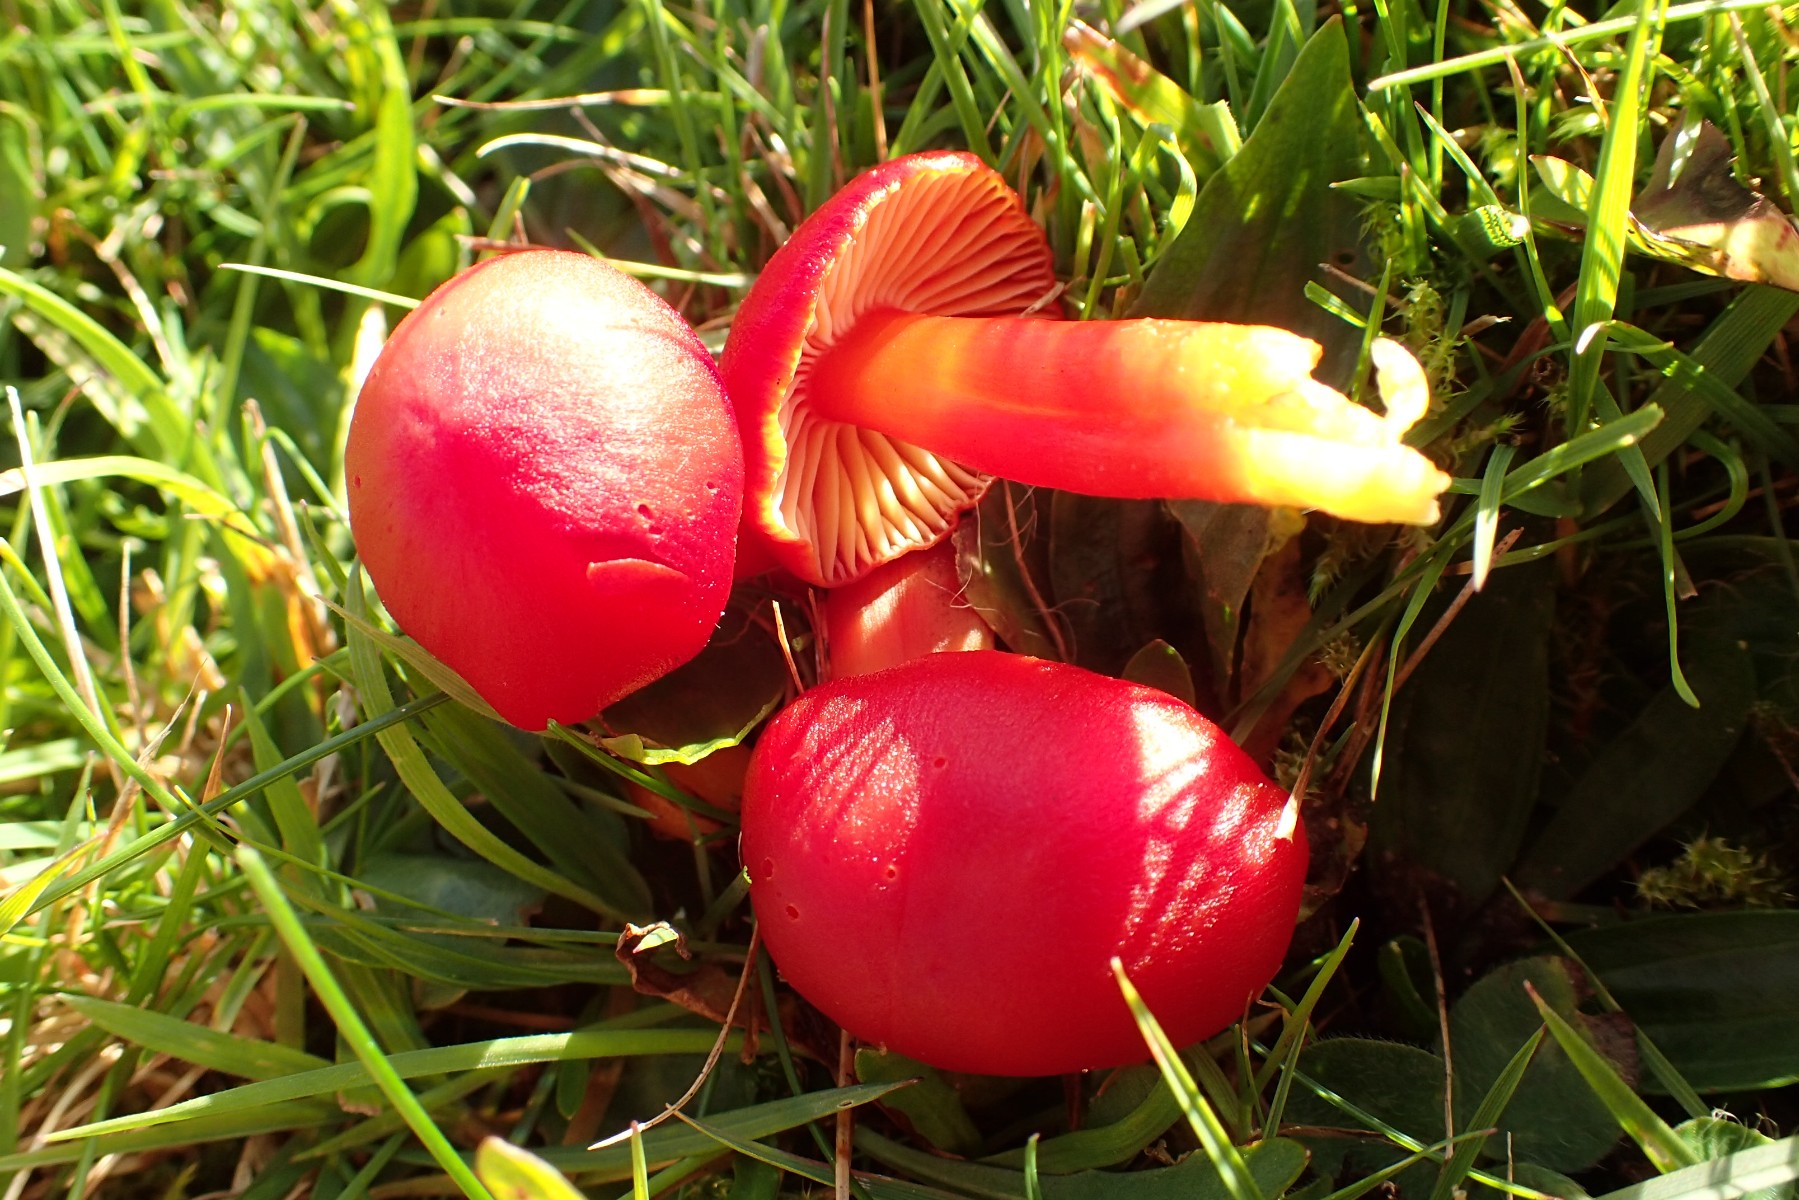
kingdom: Fungi
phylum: Basidiomycota
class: Agaricomycetes
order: Agaricales
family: Hygrophoraceae
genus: Hygrocybe
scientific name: Hygrocybe coccinea
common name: cinnober-vokshat
